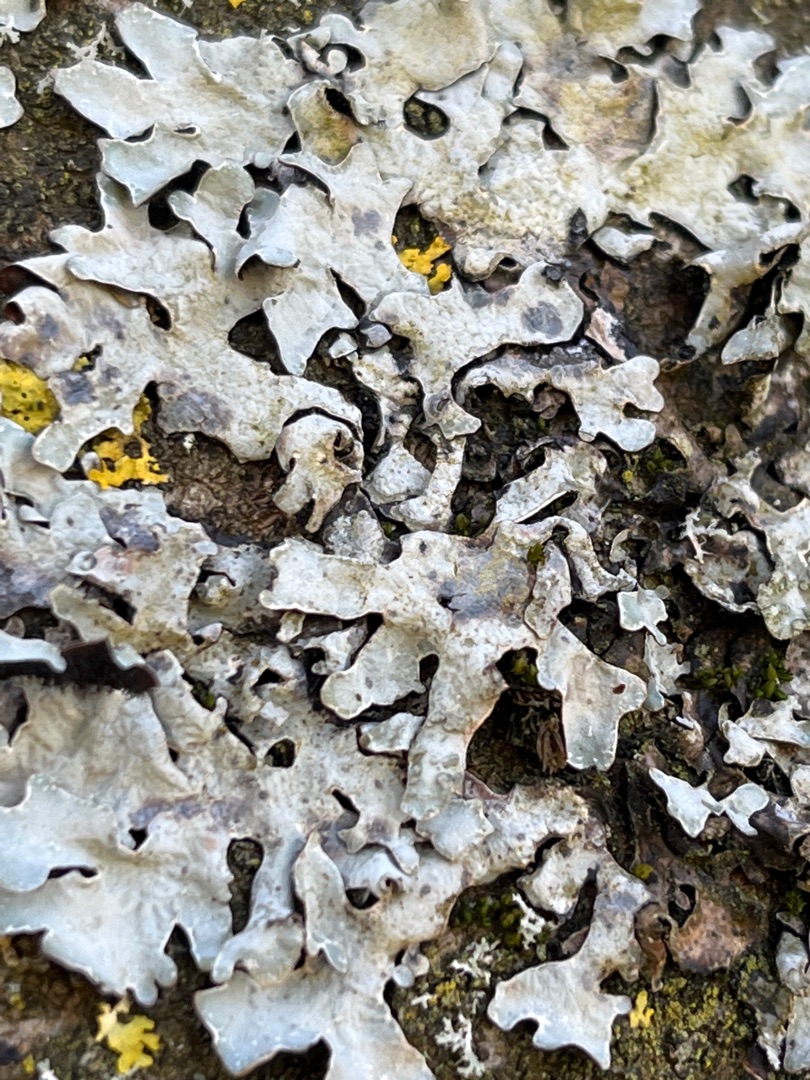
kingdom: Fungi
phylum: Ascomycota
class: Lecanoromycetes
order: Lecanorales
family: Parmeliaceae
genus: Parmelia
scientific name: Parmelia sulcata
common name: Rynket skållav
